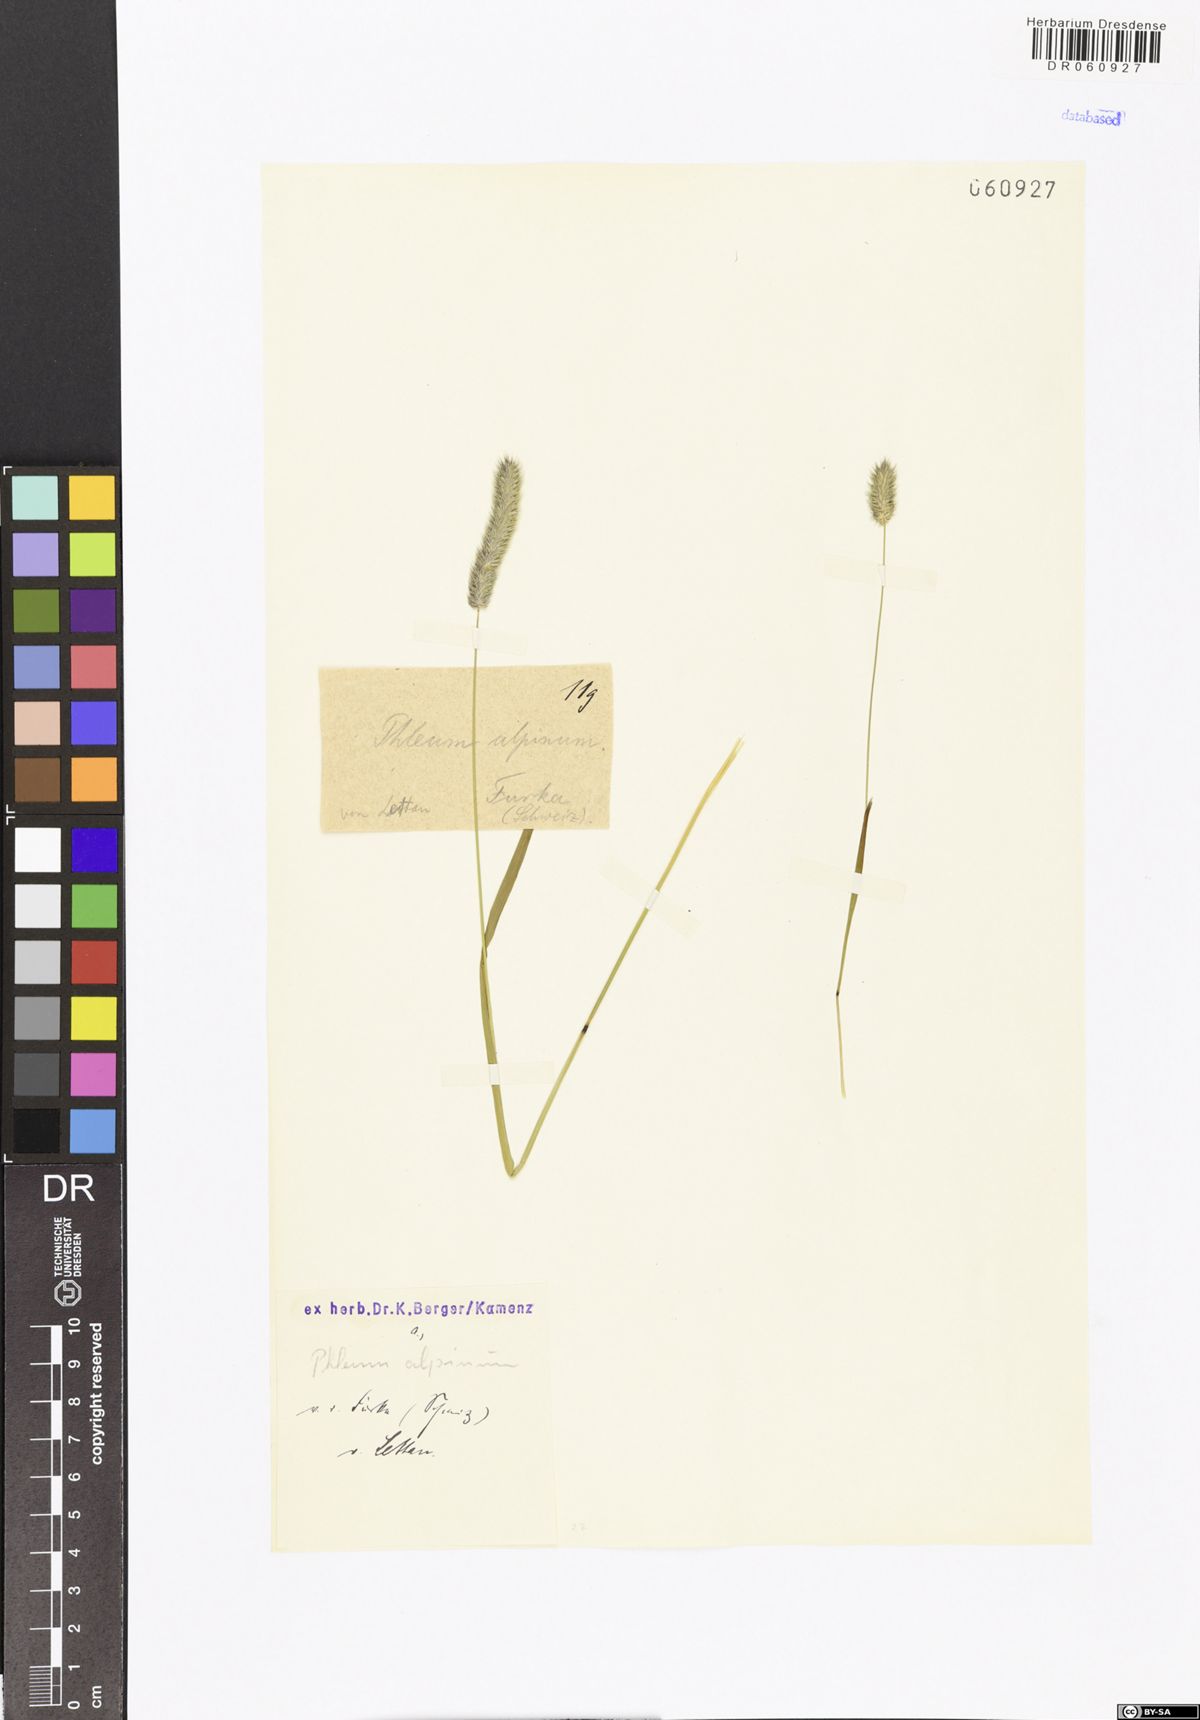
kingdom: Plantae
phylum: Tracheophyta
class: Liliopsida
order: Poales
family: Poaceae
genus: Phleum
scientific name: Phleum alpinum
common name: Alpine cat's-tail
